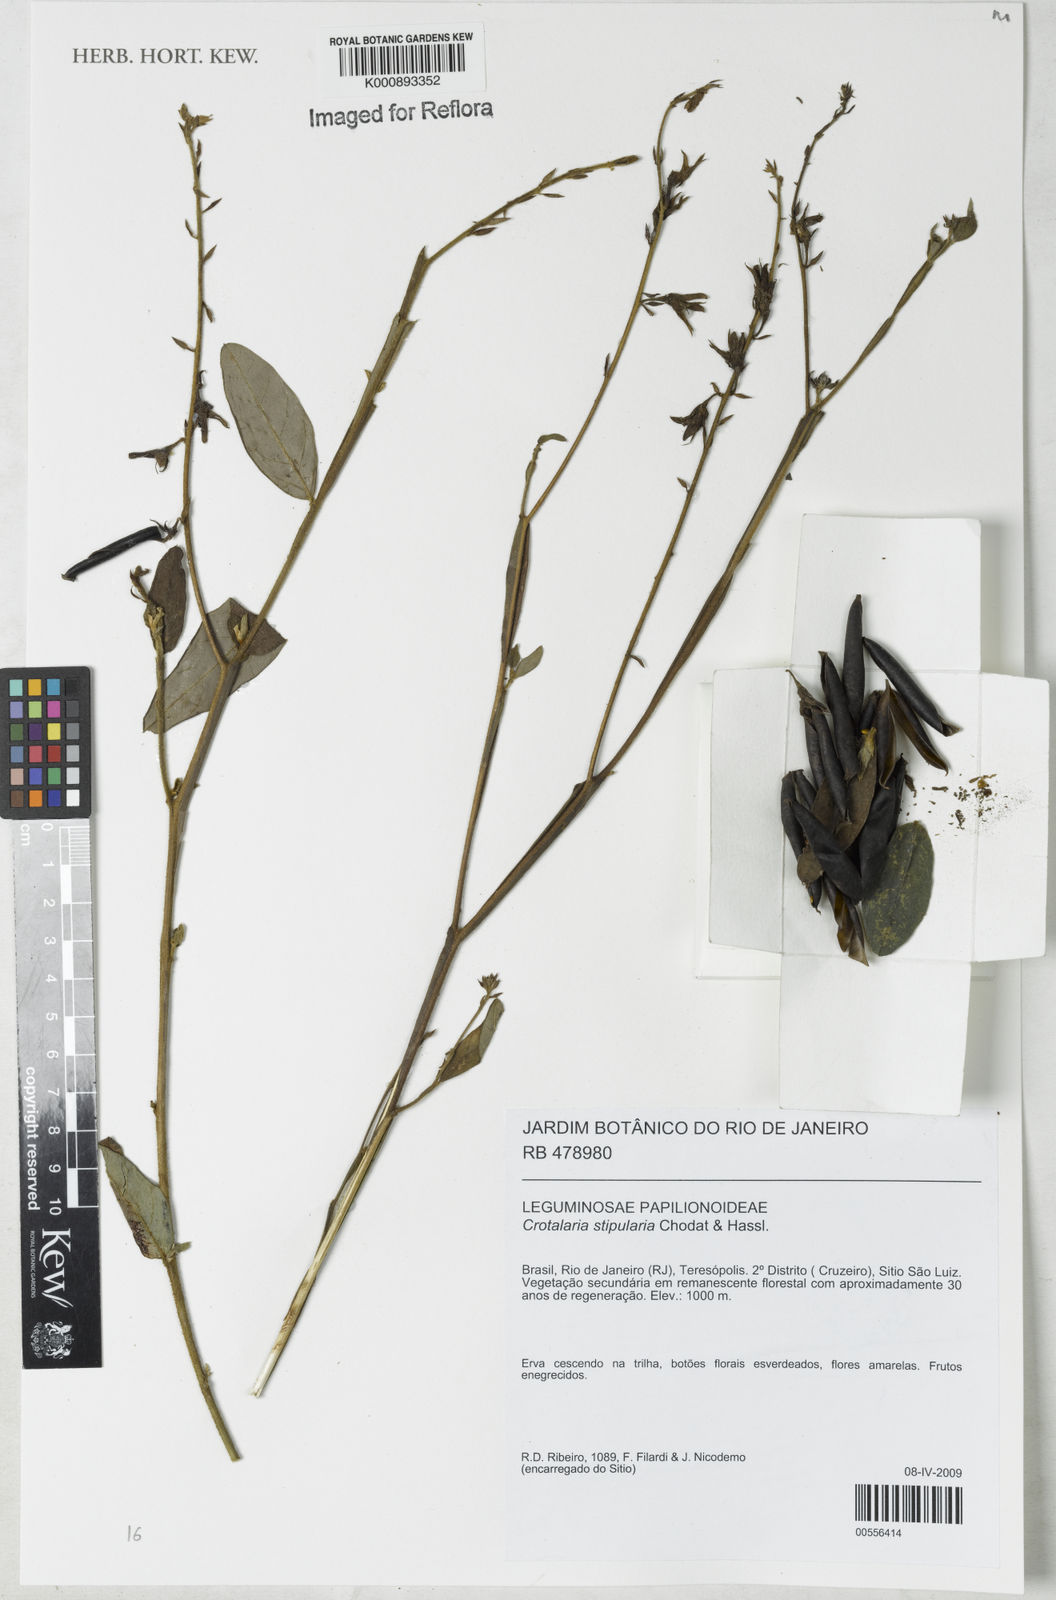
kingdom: Plantae
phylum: Tracheophyta
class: Magnoliopsida
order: Fabales
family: Fabaceae
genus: Crotalaria
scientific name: Crotalaria breviflora
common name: Short-flower crotalaria
